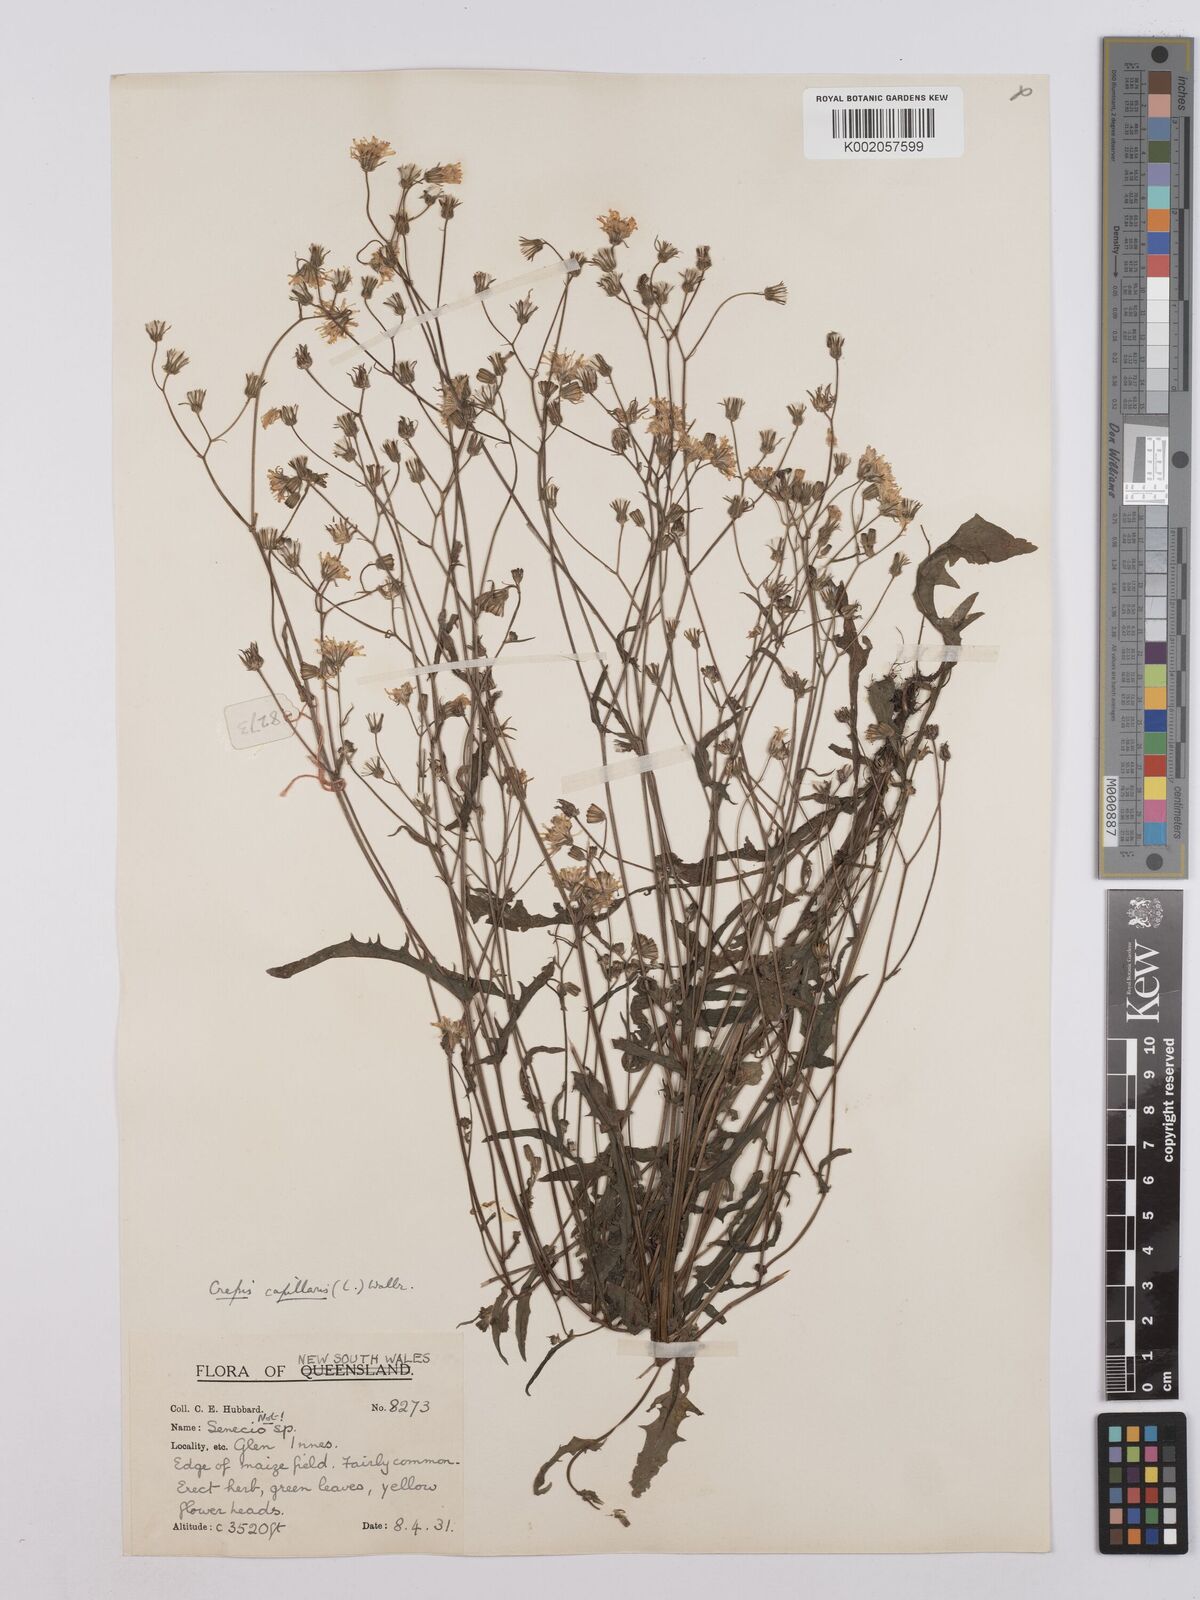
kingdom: Plantae
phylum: Tracheophyta
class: Magnoliopsida
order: Asterales
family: Asteraceae
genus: Crepis
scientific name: Crepis capillaris
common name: Smooth hawksbeard
